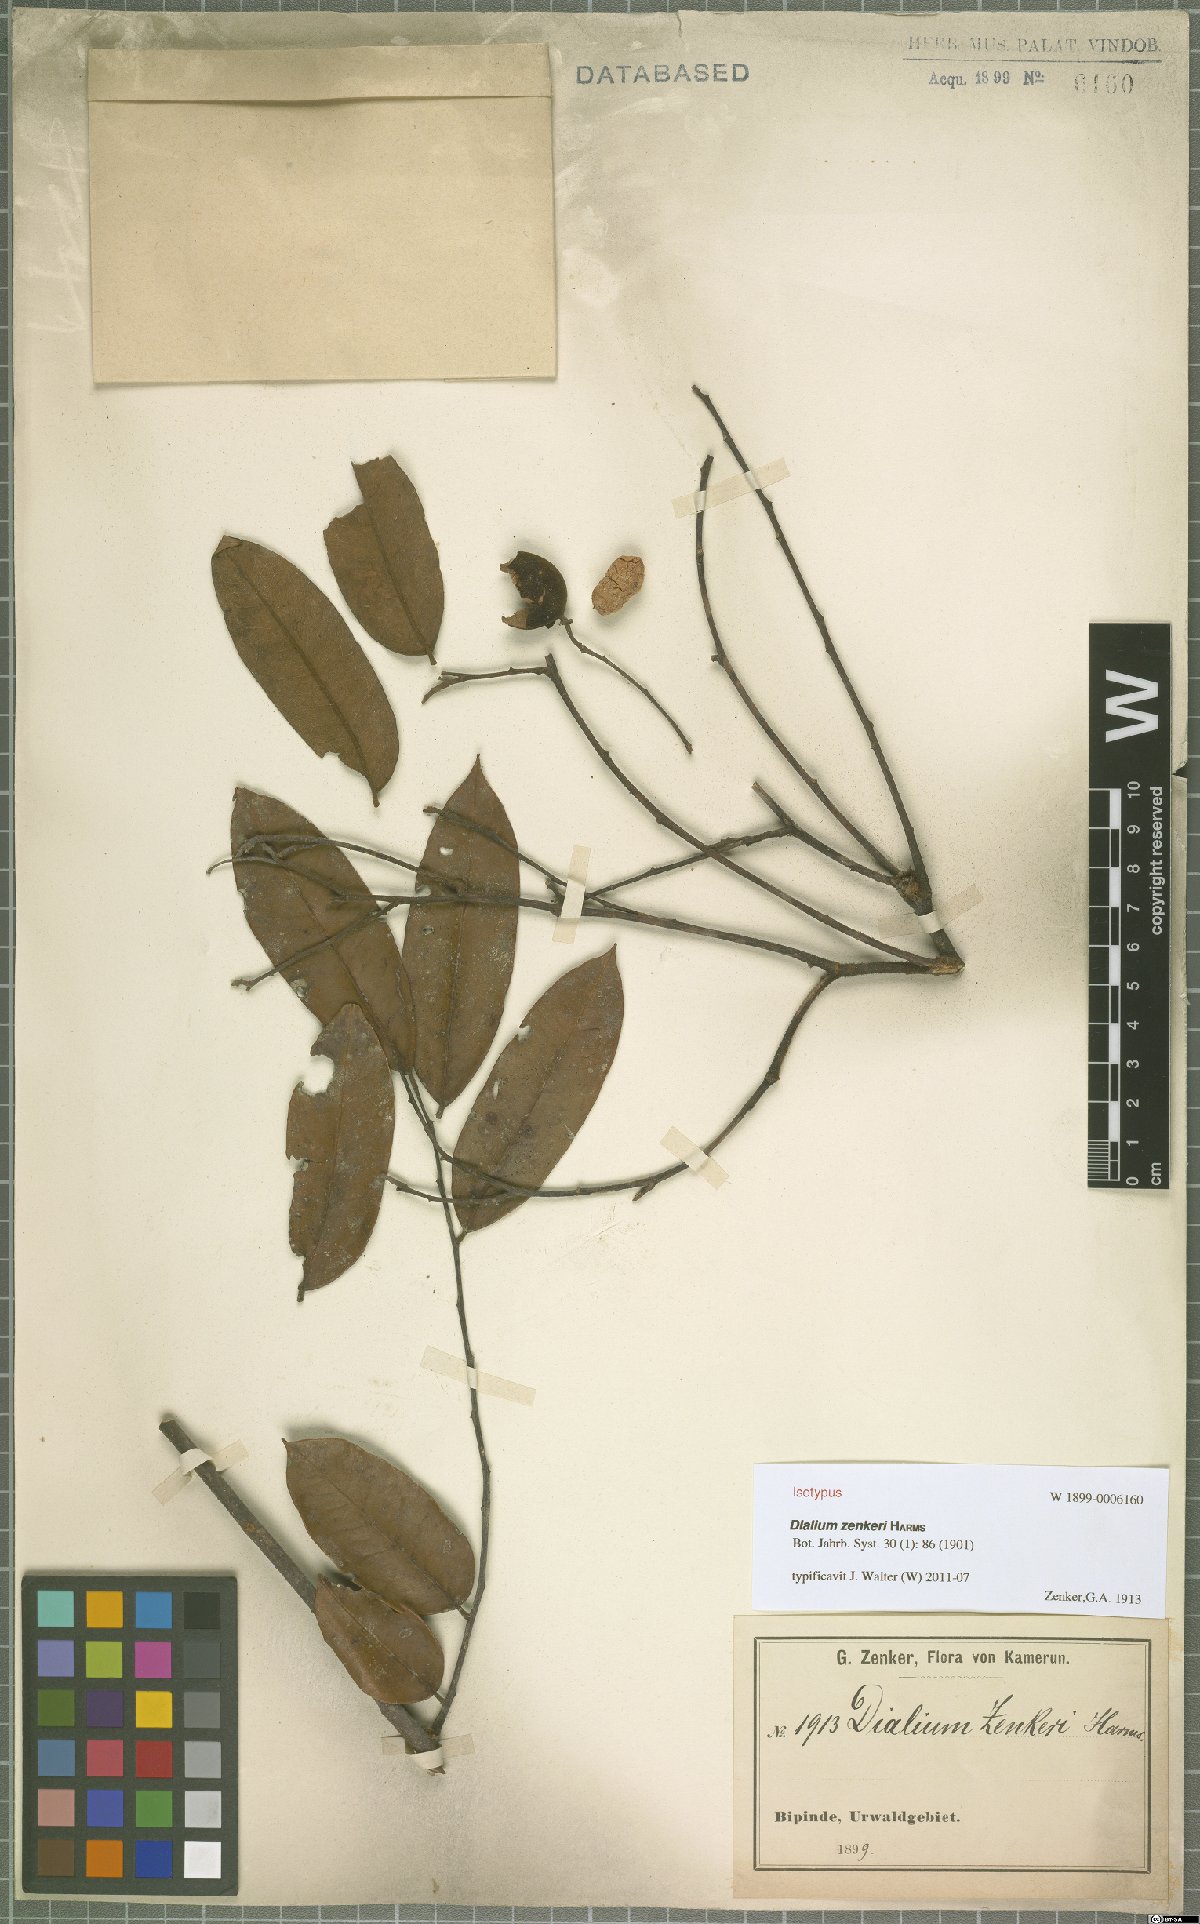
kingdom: Plantae
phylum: Tracheophyta
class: Magnoliopsida
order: Fabales
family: Fabaceae
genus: Dialium
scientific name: Dialium zenkeri
